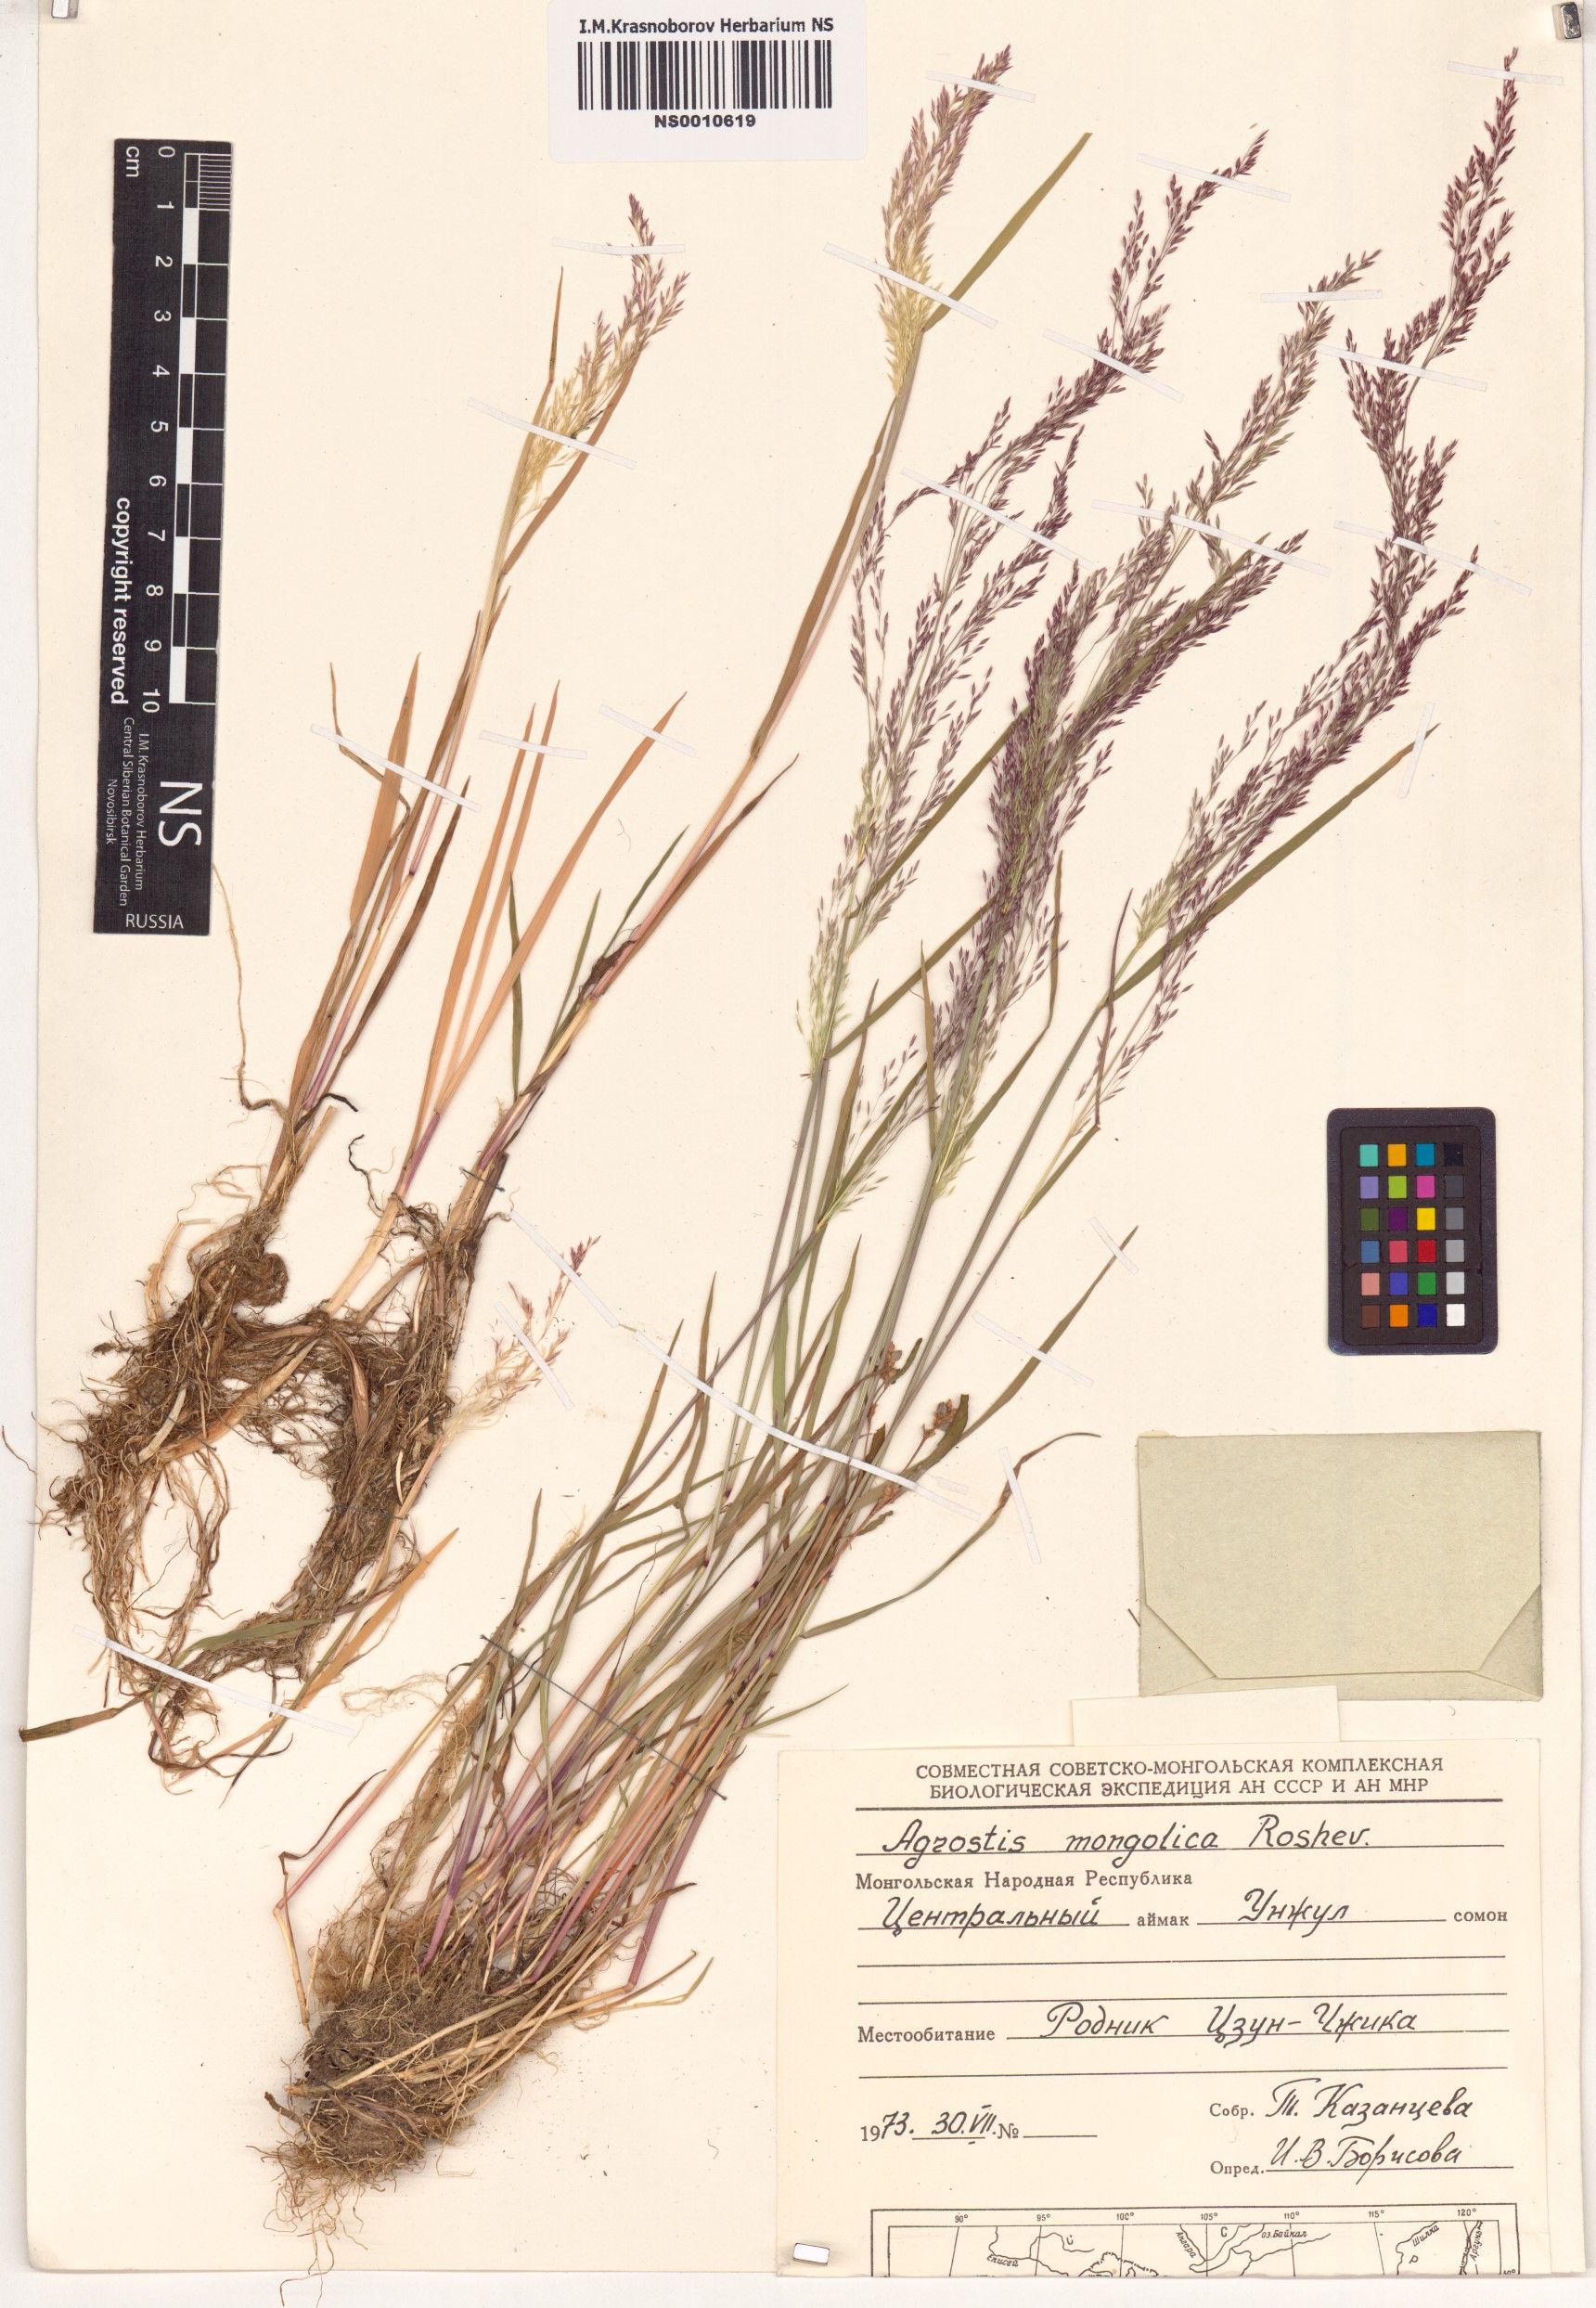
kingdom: Plantae
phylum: Tracheophyta
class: Liliopsida
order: Poales
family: Poaceae
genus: Agrostis
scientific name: Agrostis divaricatissima
